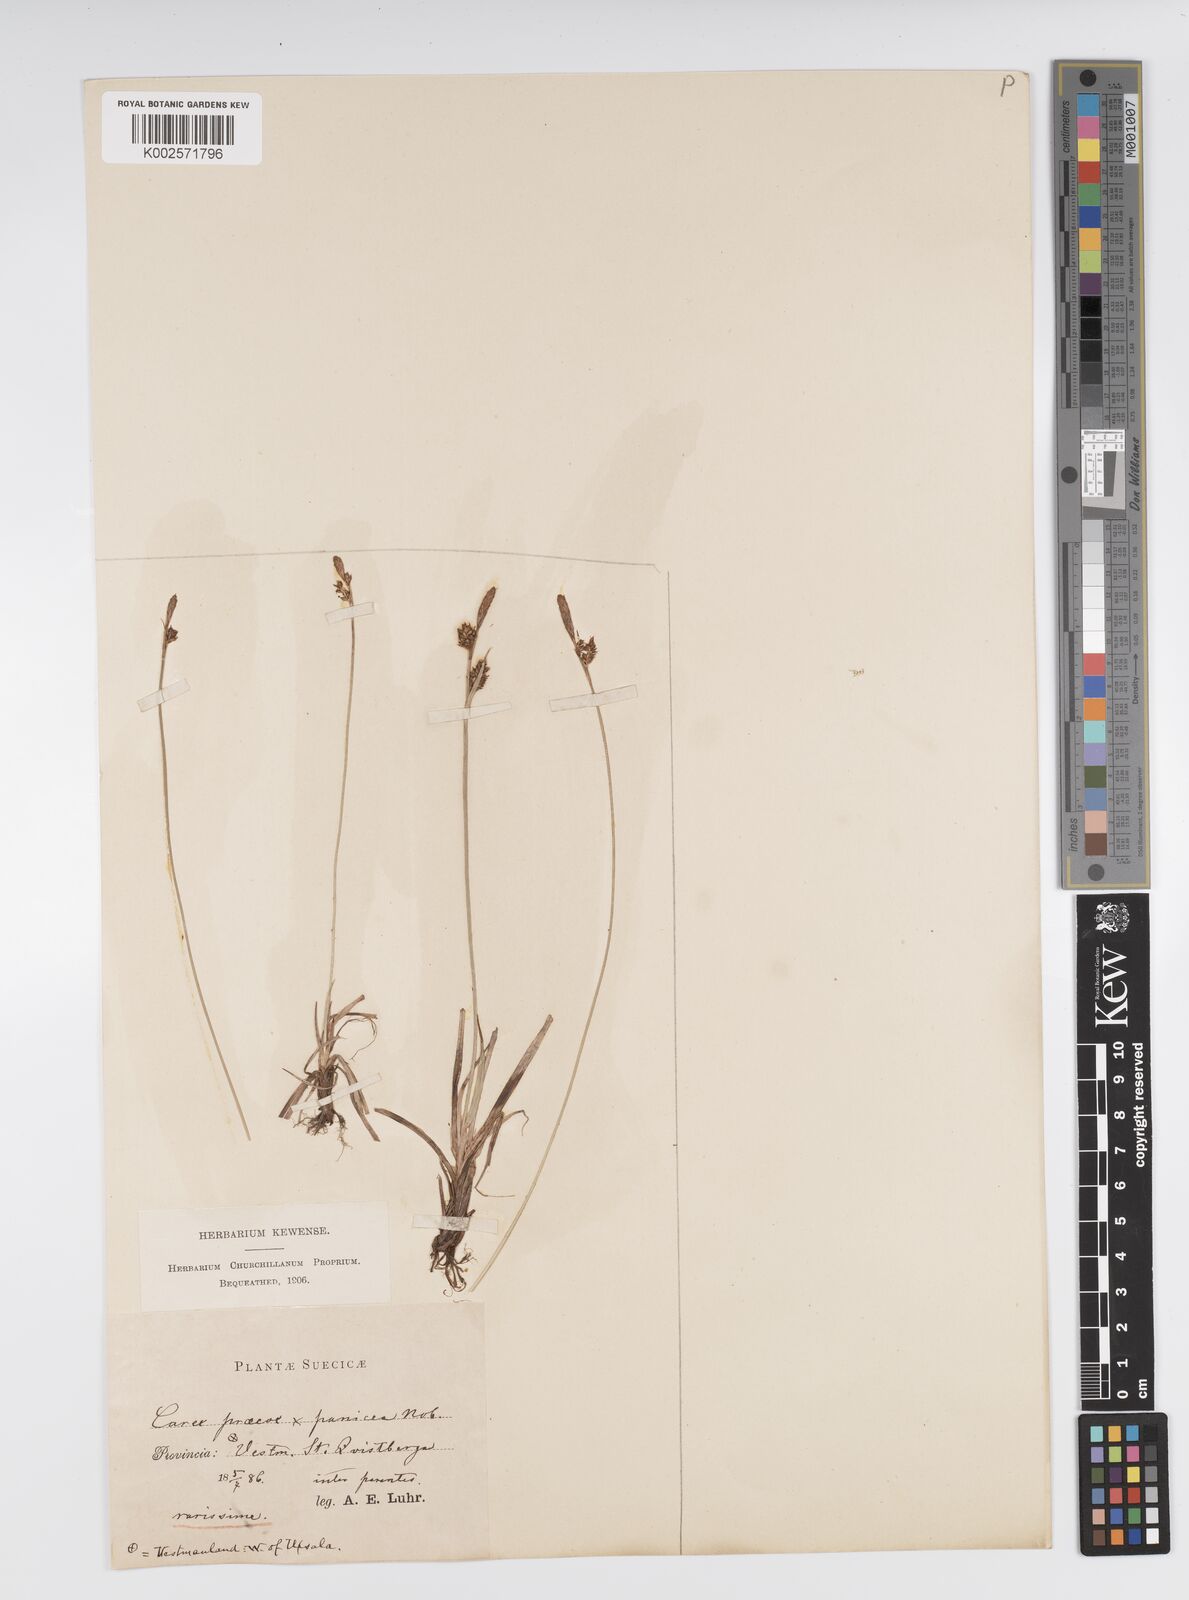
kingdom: Plantae
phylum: Tracheophyta
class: Liliopsida
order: Poales
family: Cyperaceae
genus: Carex
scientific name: Carex caryophyllea
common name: Spring sedge
